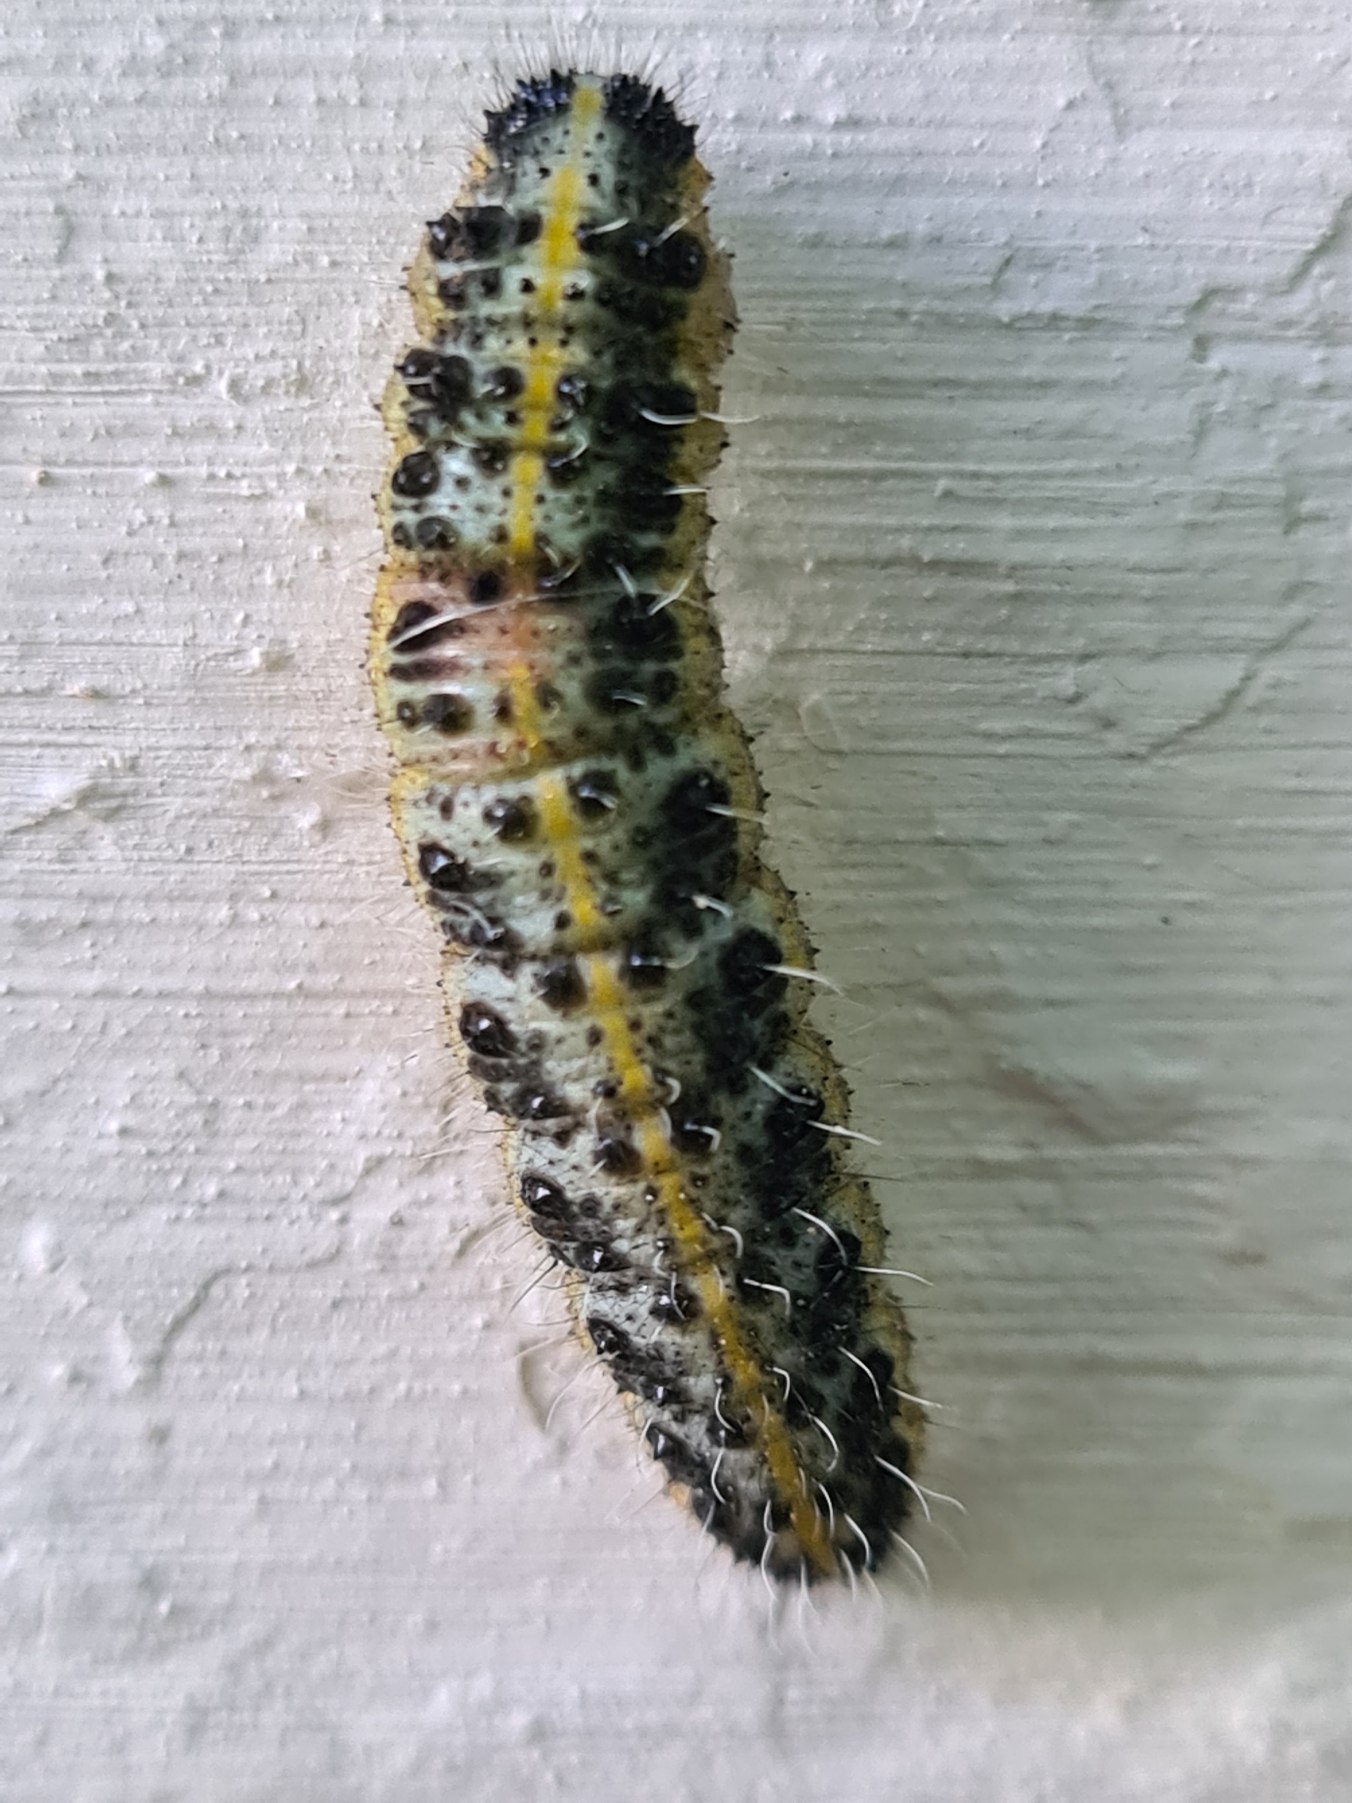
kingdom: Animalia
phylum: Arthropoda
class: Insecta
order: Lepidoptera
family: Pieridae
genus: Pieris
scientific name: Pieris brassicae
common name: Stor kålsommerfugl
